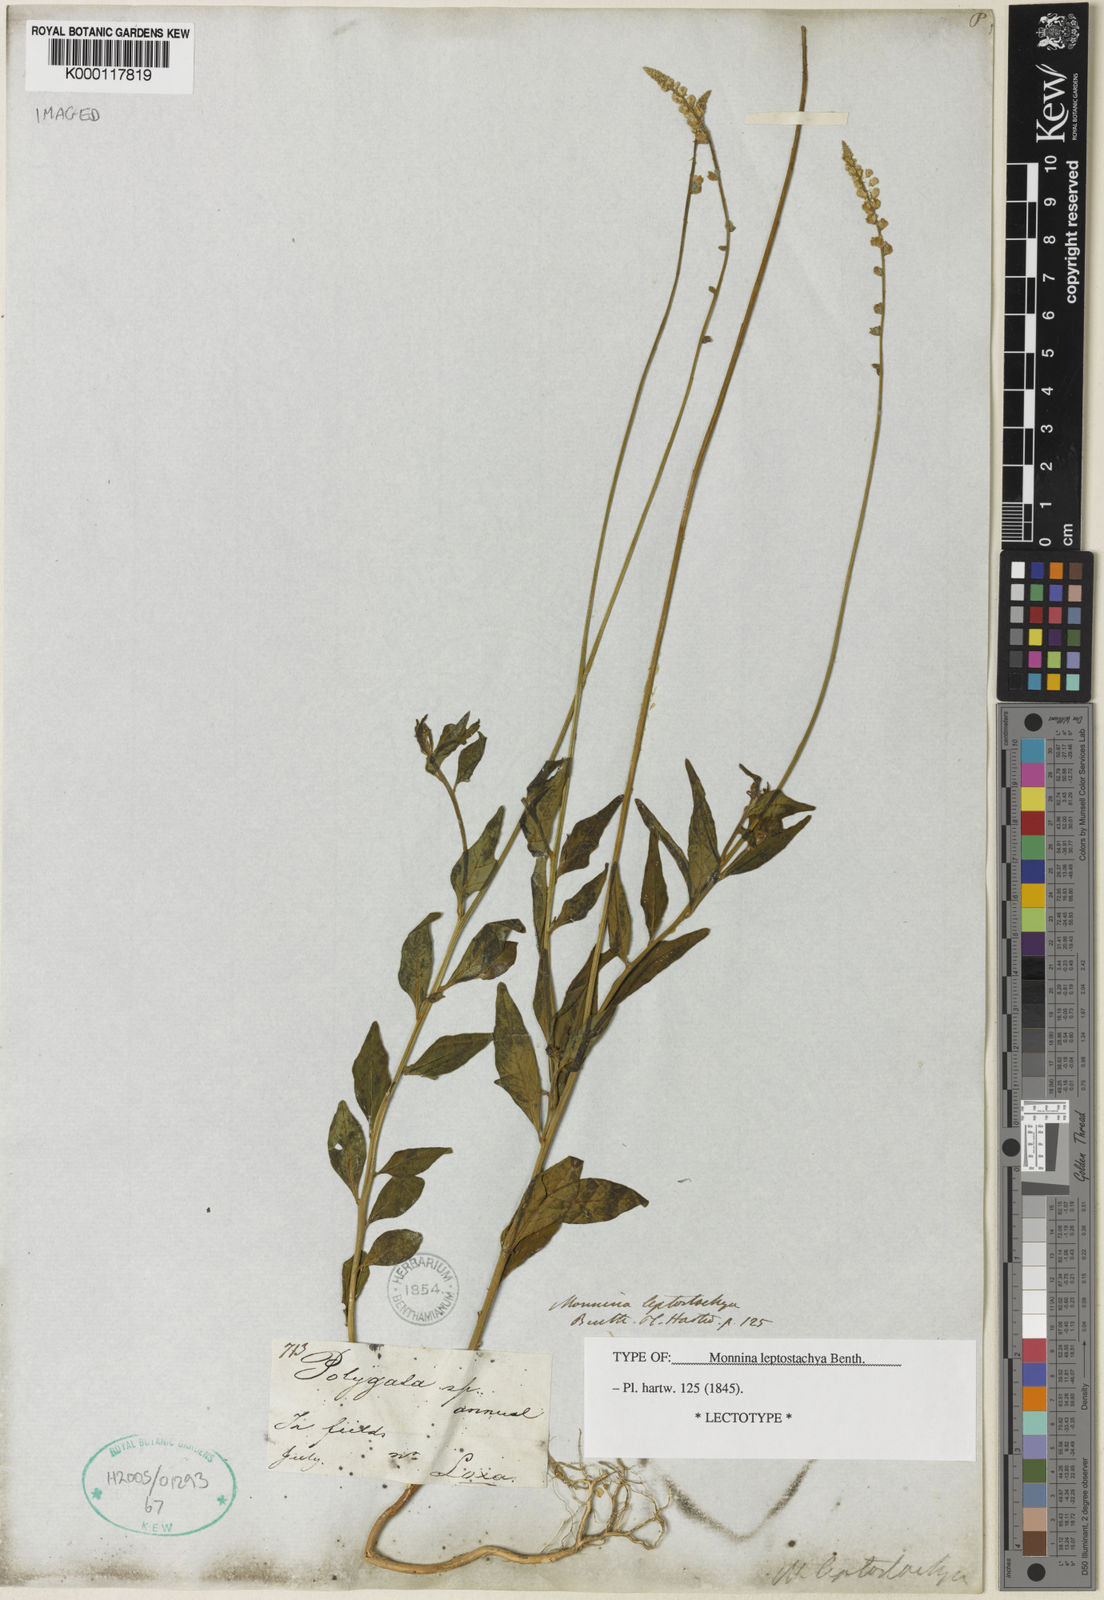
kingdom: Plantae
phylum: Tracheophyta
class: Magnoliopsida
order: Fabales
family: Polygalaceae
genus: Monnina
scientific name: Monnina leptostachya
